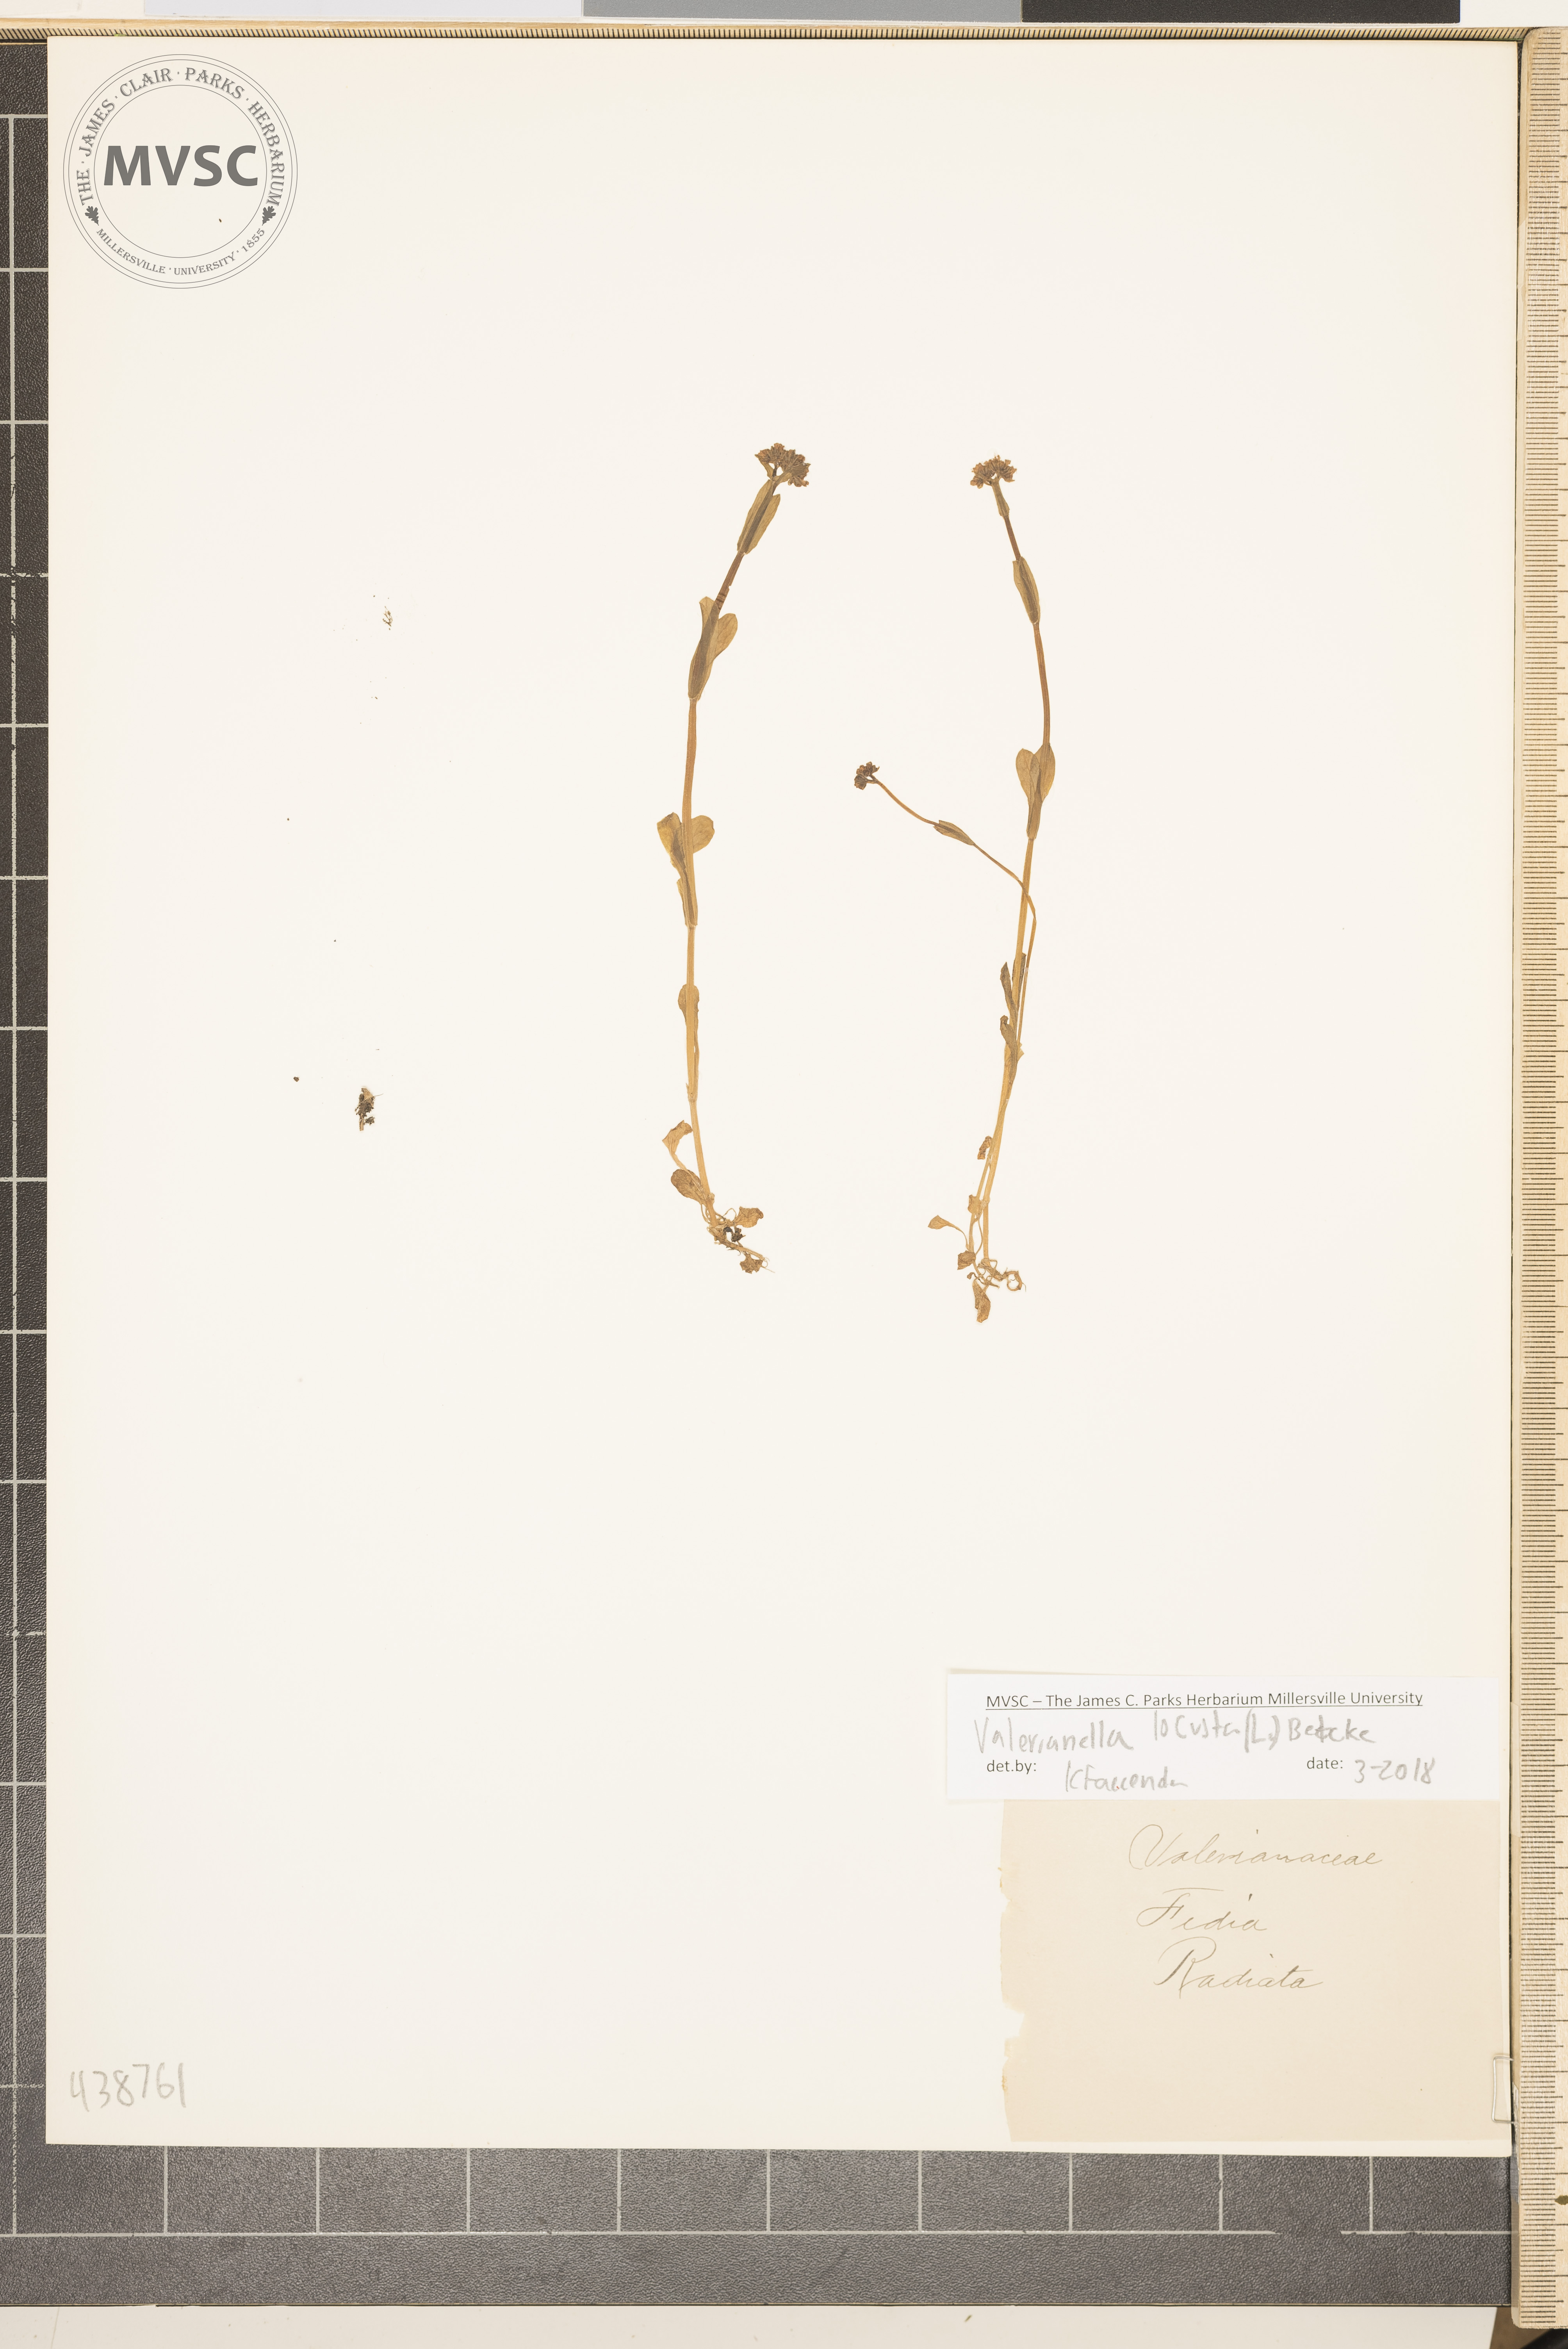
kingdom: Plantae
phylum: Tracheophyta
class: Magnoliopsida
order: Dipsacales
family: Caprifoliaceae
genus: Valerianella
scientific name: Valerianella locusta
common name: Common cornsalad
